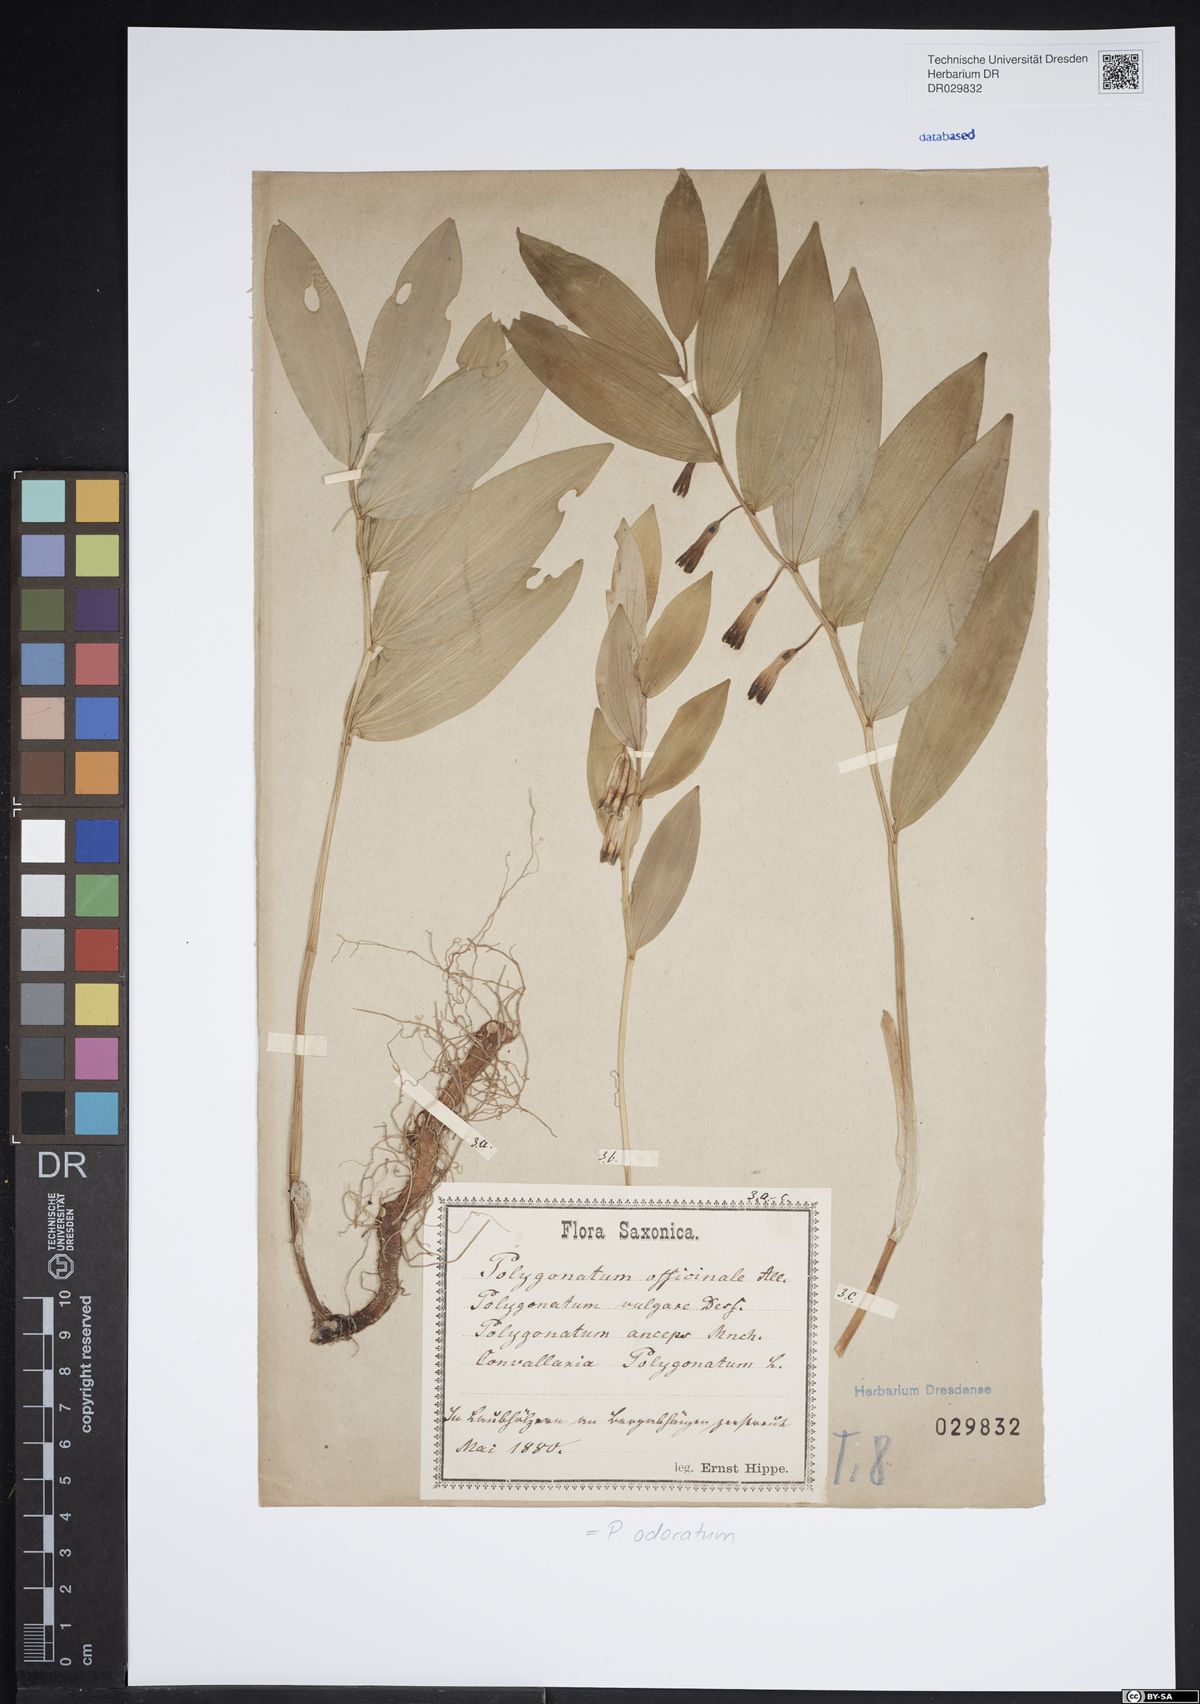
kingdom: Plantae
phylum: Tracheophyta
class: Liliopsida
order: Asparagales
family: Asparagaceae
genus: Polygonatum
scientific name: Polygonatum odoratum
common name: Angular solomon's-seal
